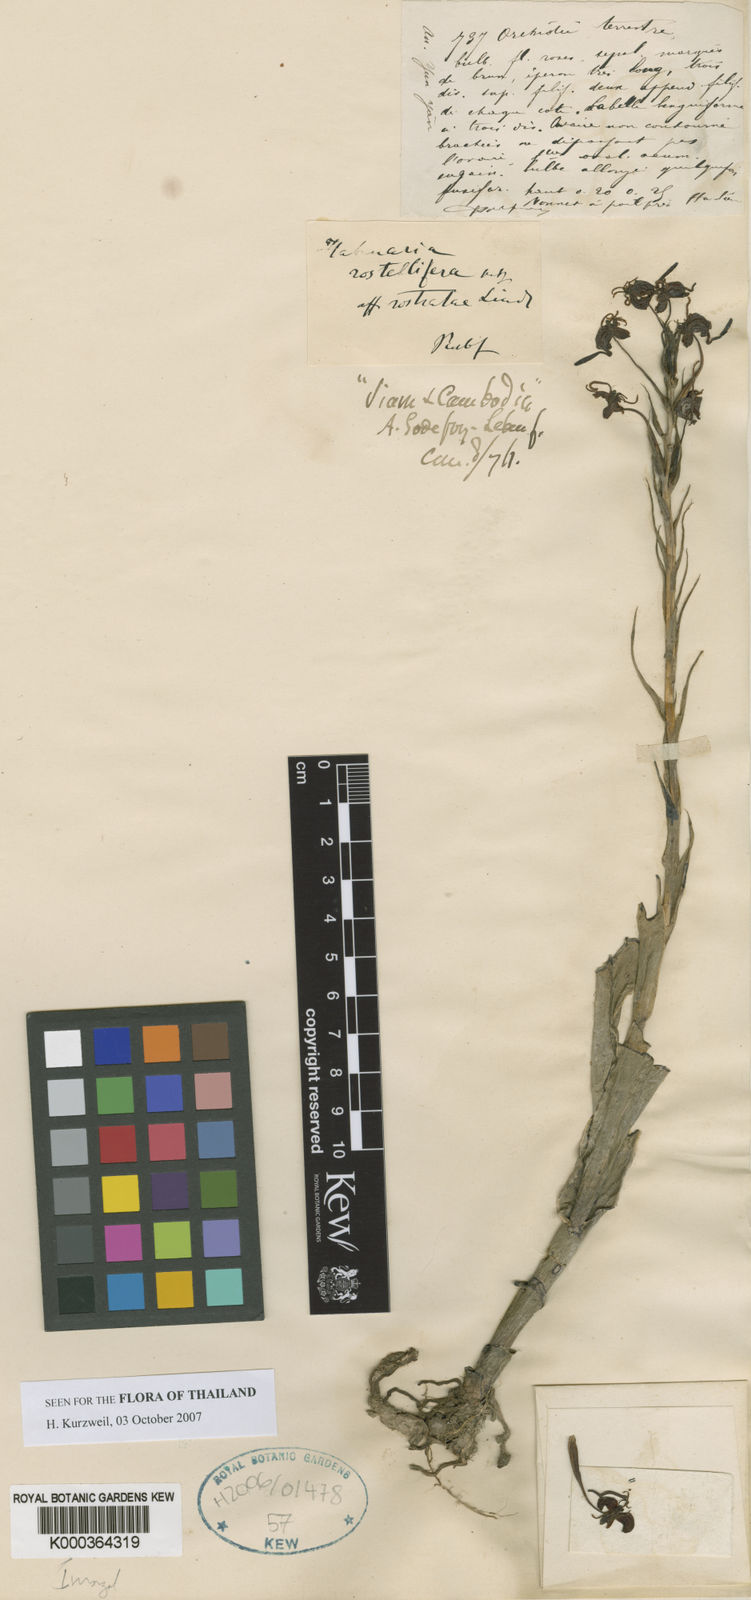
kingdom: Plantae
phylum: Tracheophyta
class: Liliopsida
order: Asparagales
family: Orchidaceae
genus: Habenaria
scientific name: Habenaria rostellifera
